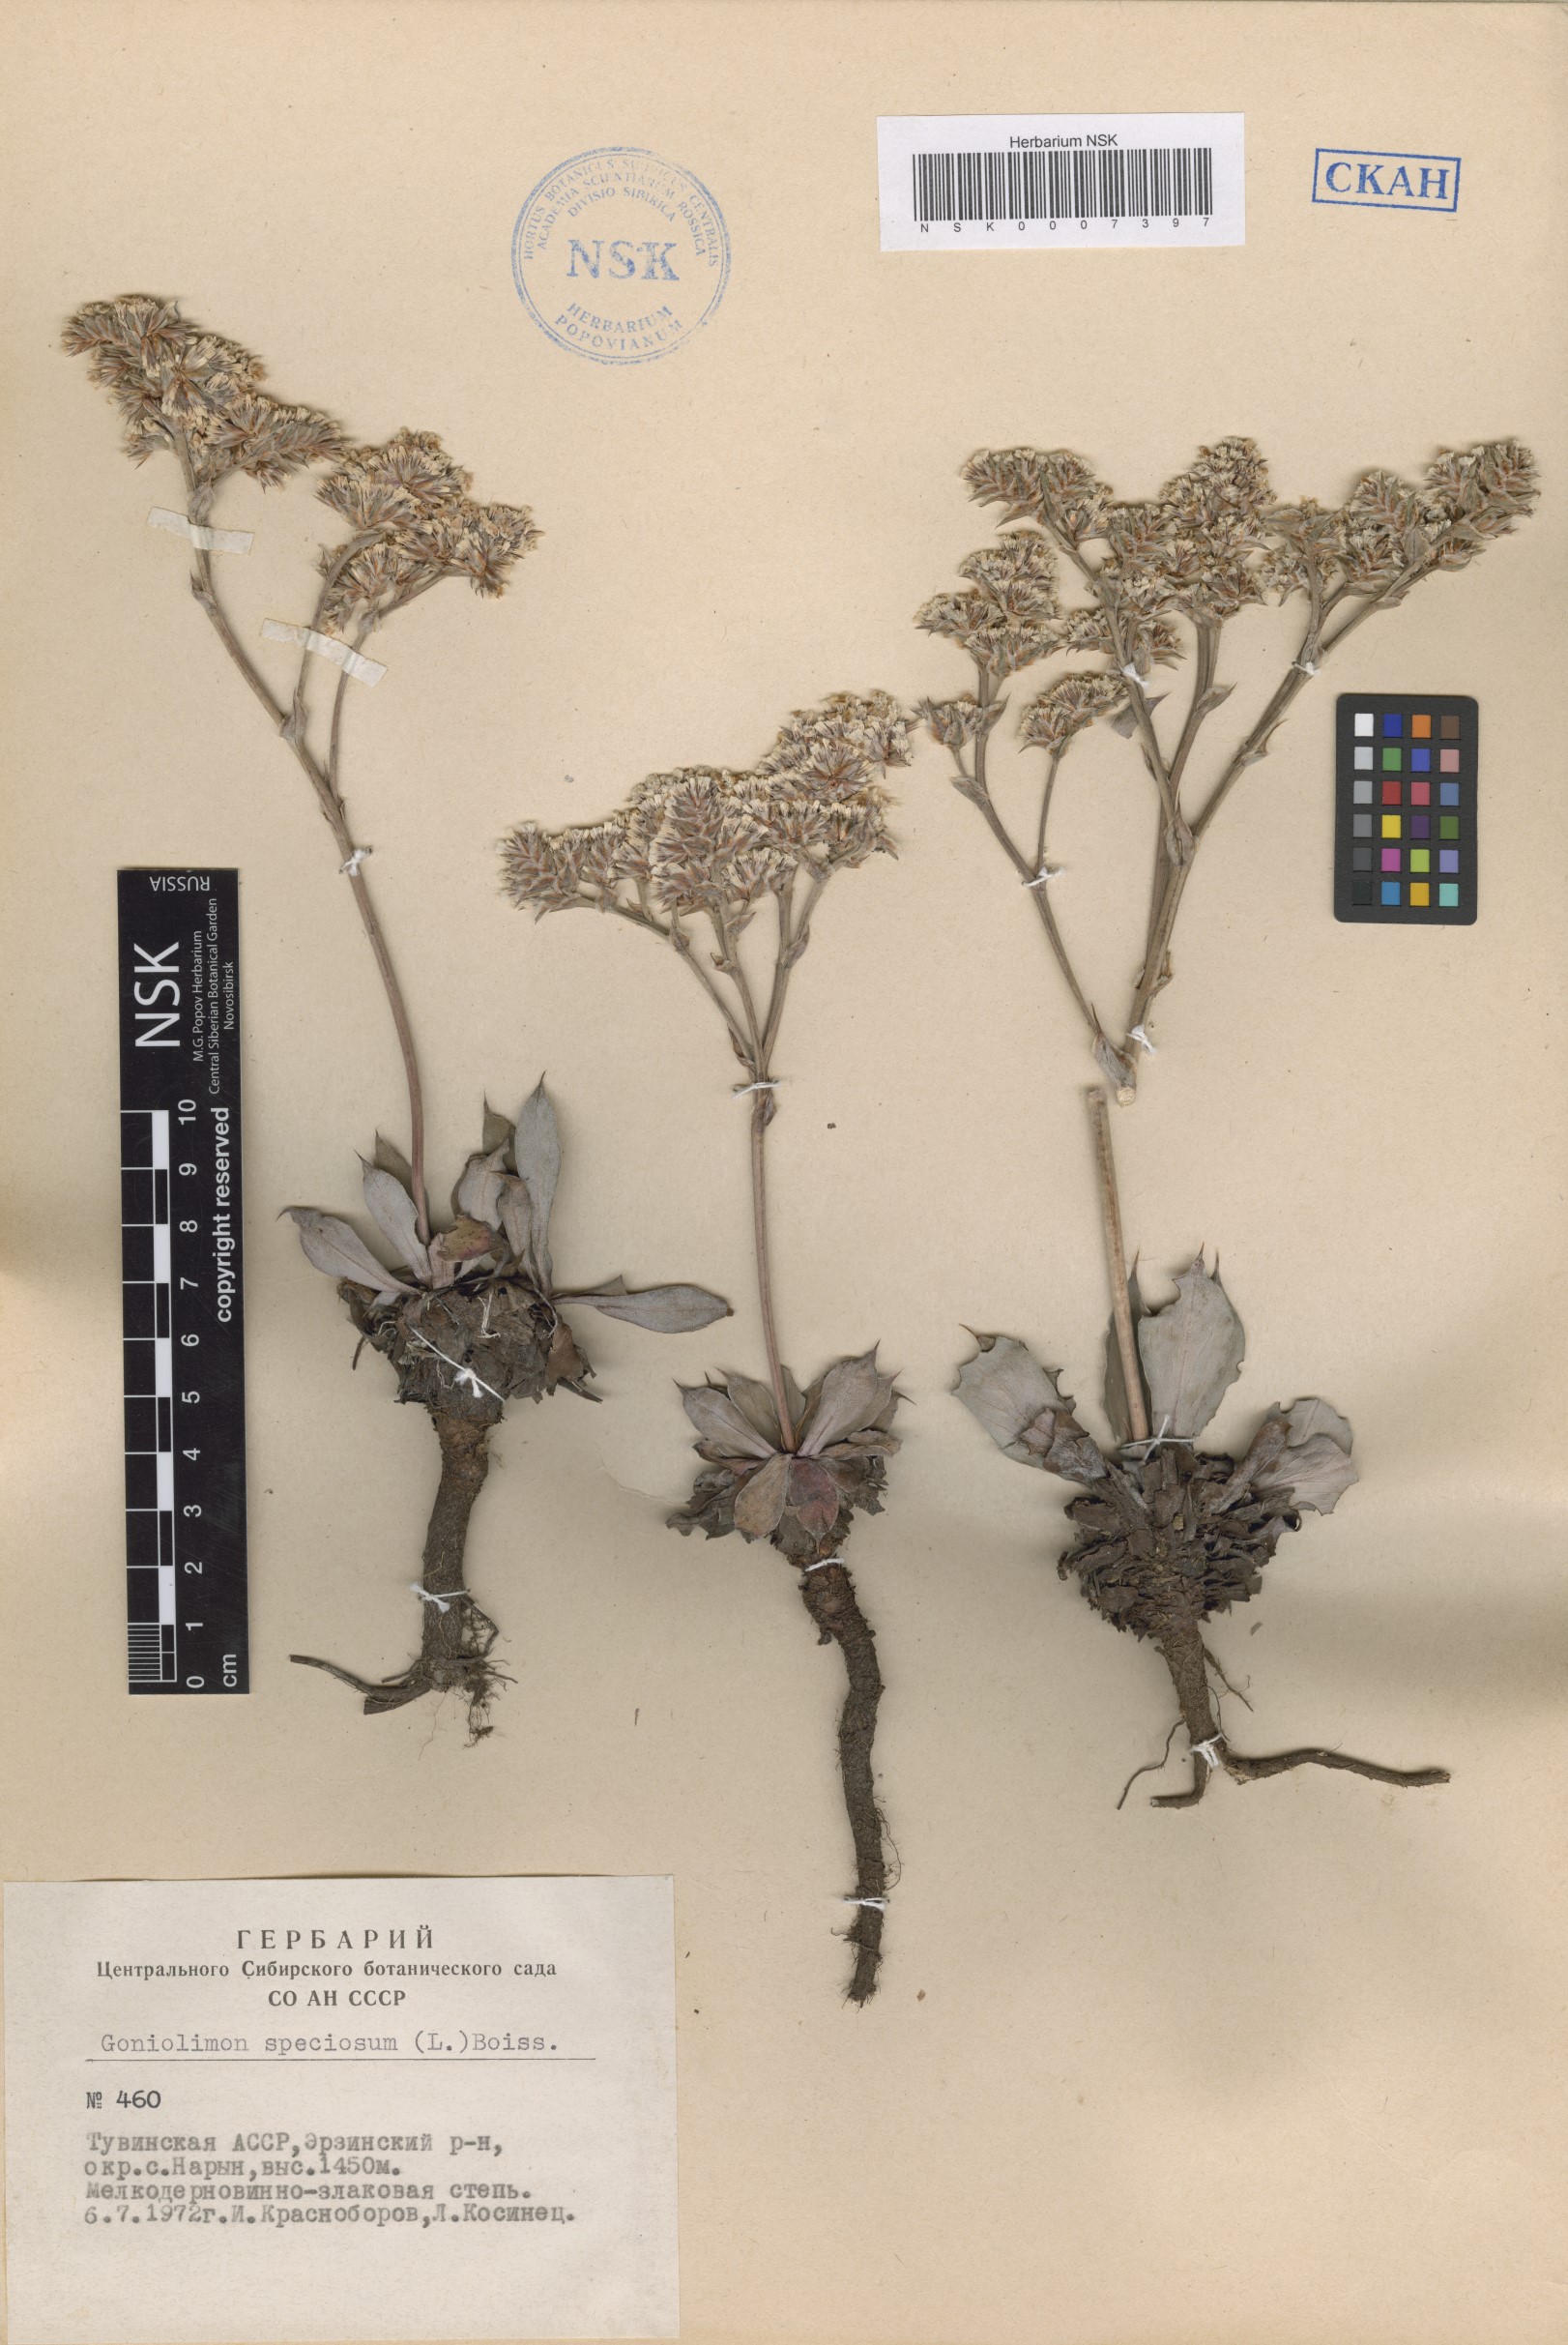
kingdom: Plantae
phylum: Tracheophyta
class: Magnoliopsida
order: Caryophyllales
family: Plumbaginaceae
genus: Goniolimon
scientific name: Goniolimon speciosum
